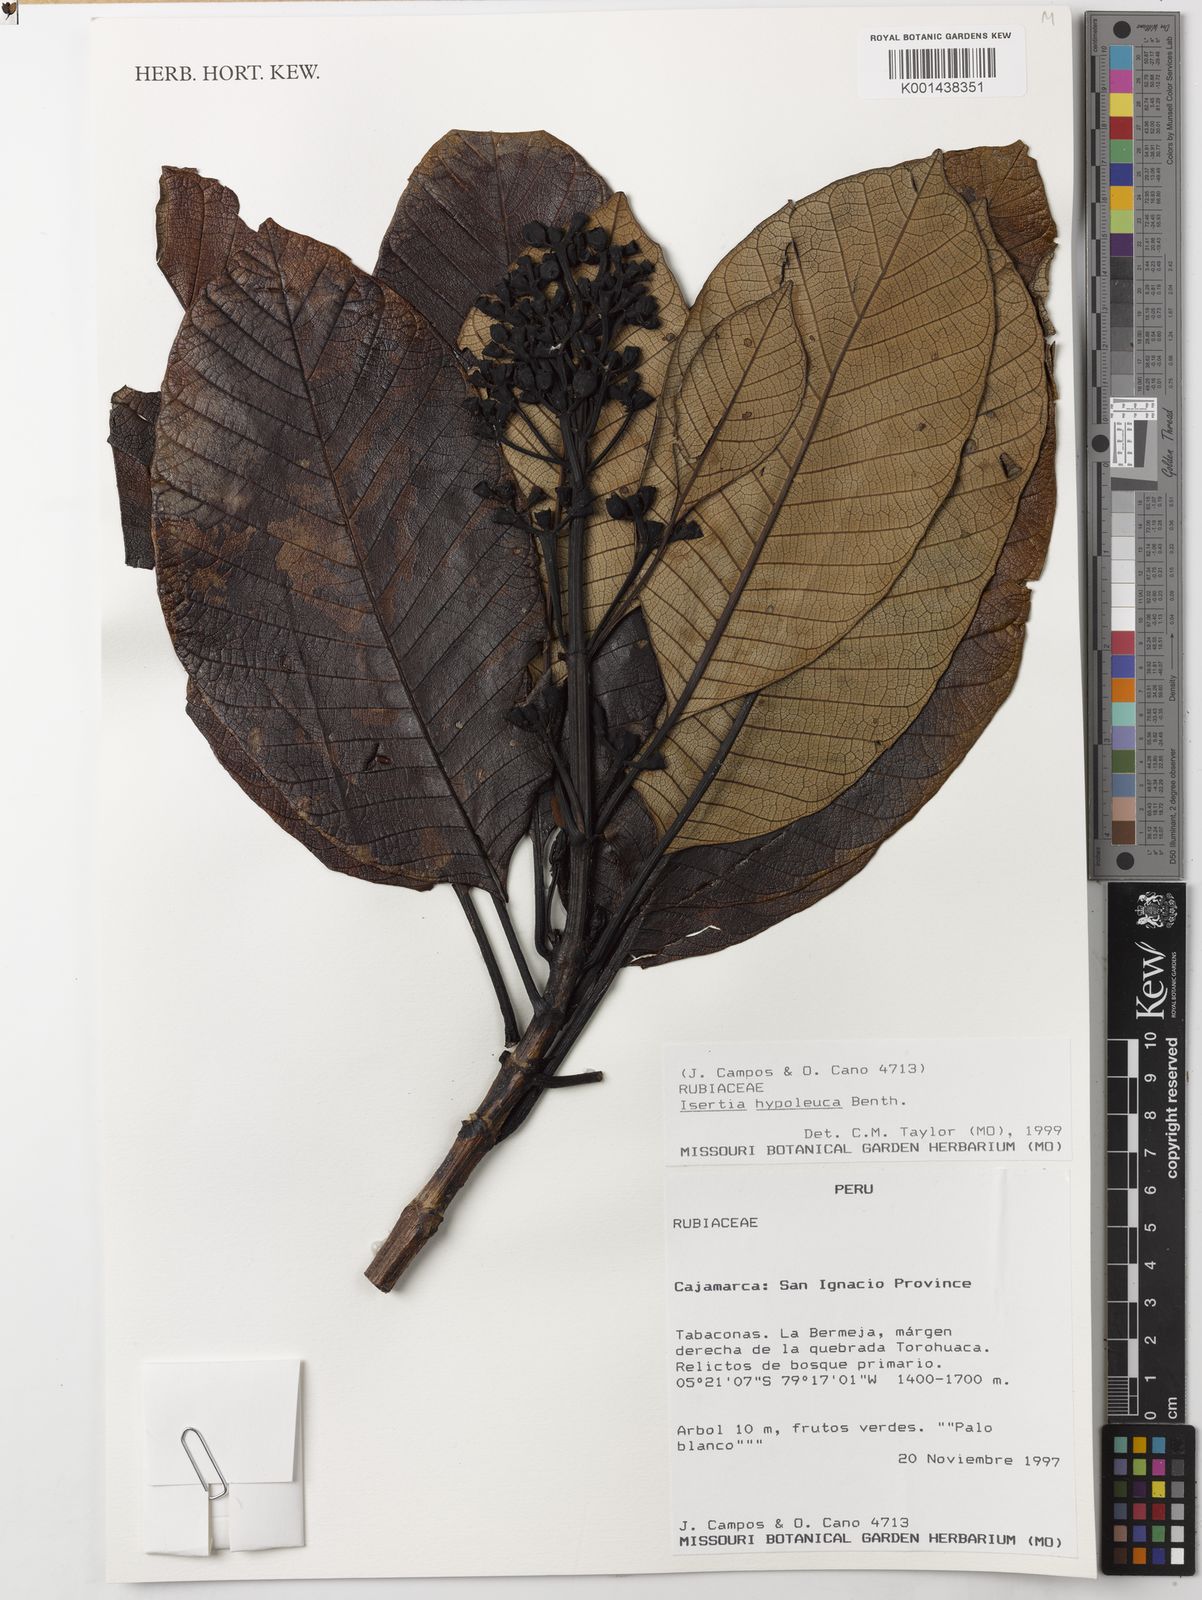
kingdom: Plantae
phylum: Tracheophyta
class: Magnoliopsida
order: Gentianales
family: Rubiaceae
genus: Isertia
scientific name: Isertia hypoleuca
